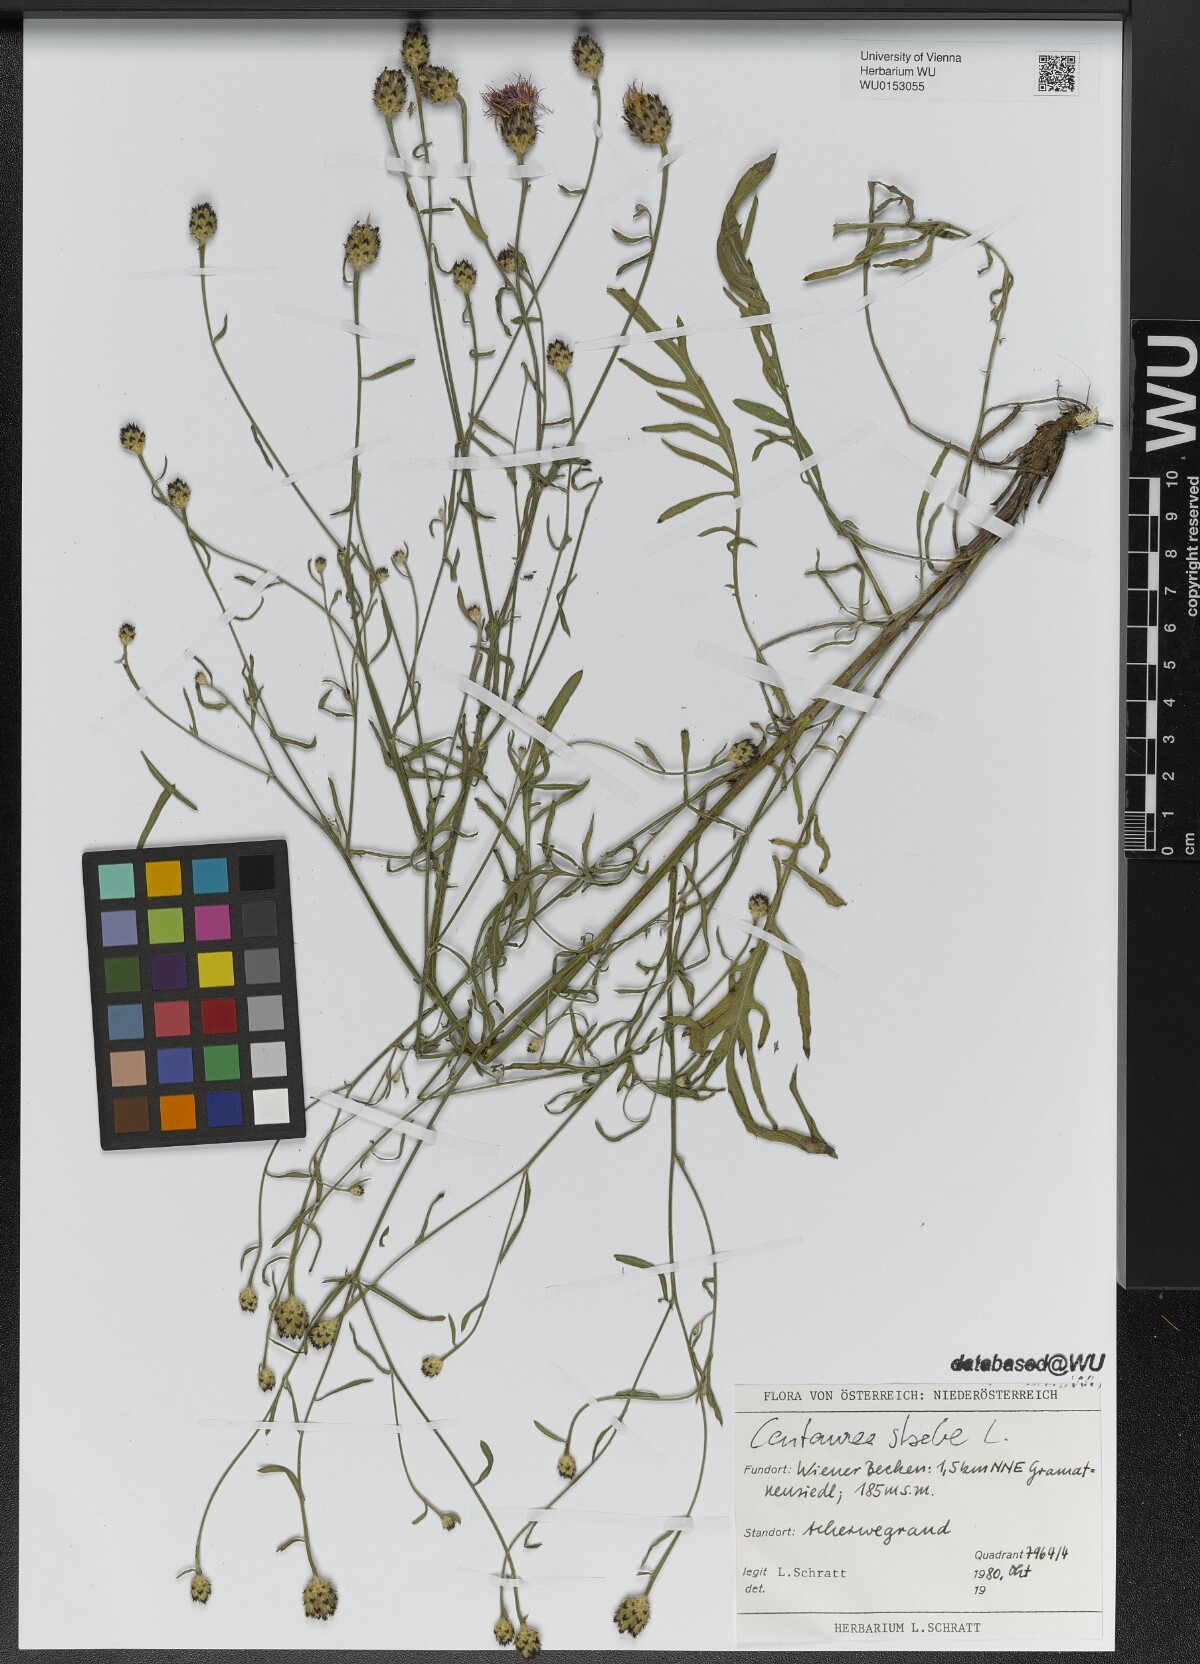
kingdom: Plantae
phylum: Tracheophyta
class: Magnoliopsida
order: Asterales
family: Asteraceae
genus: Centaurea
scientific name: Centaurea stoebe
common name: Spotted knapweed
